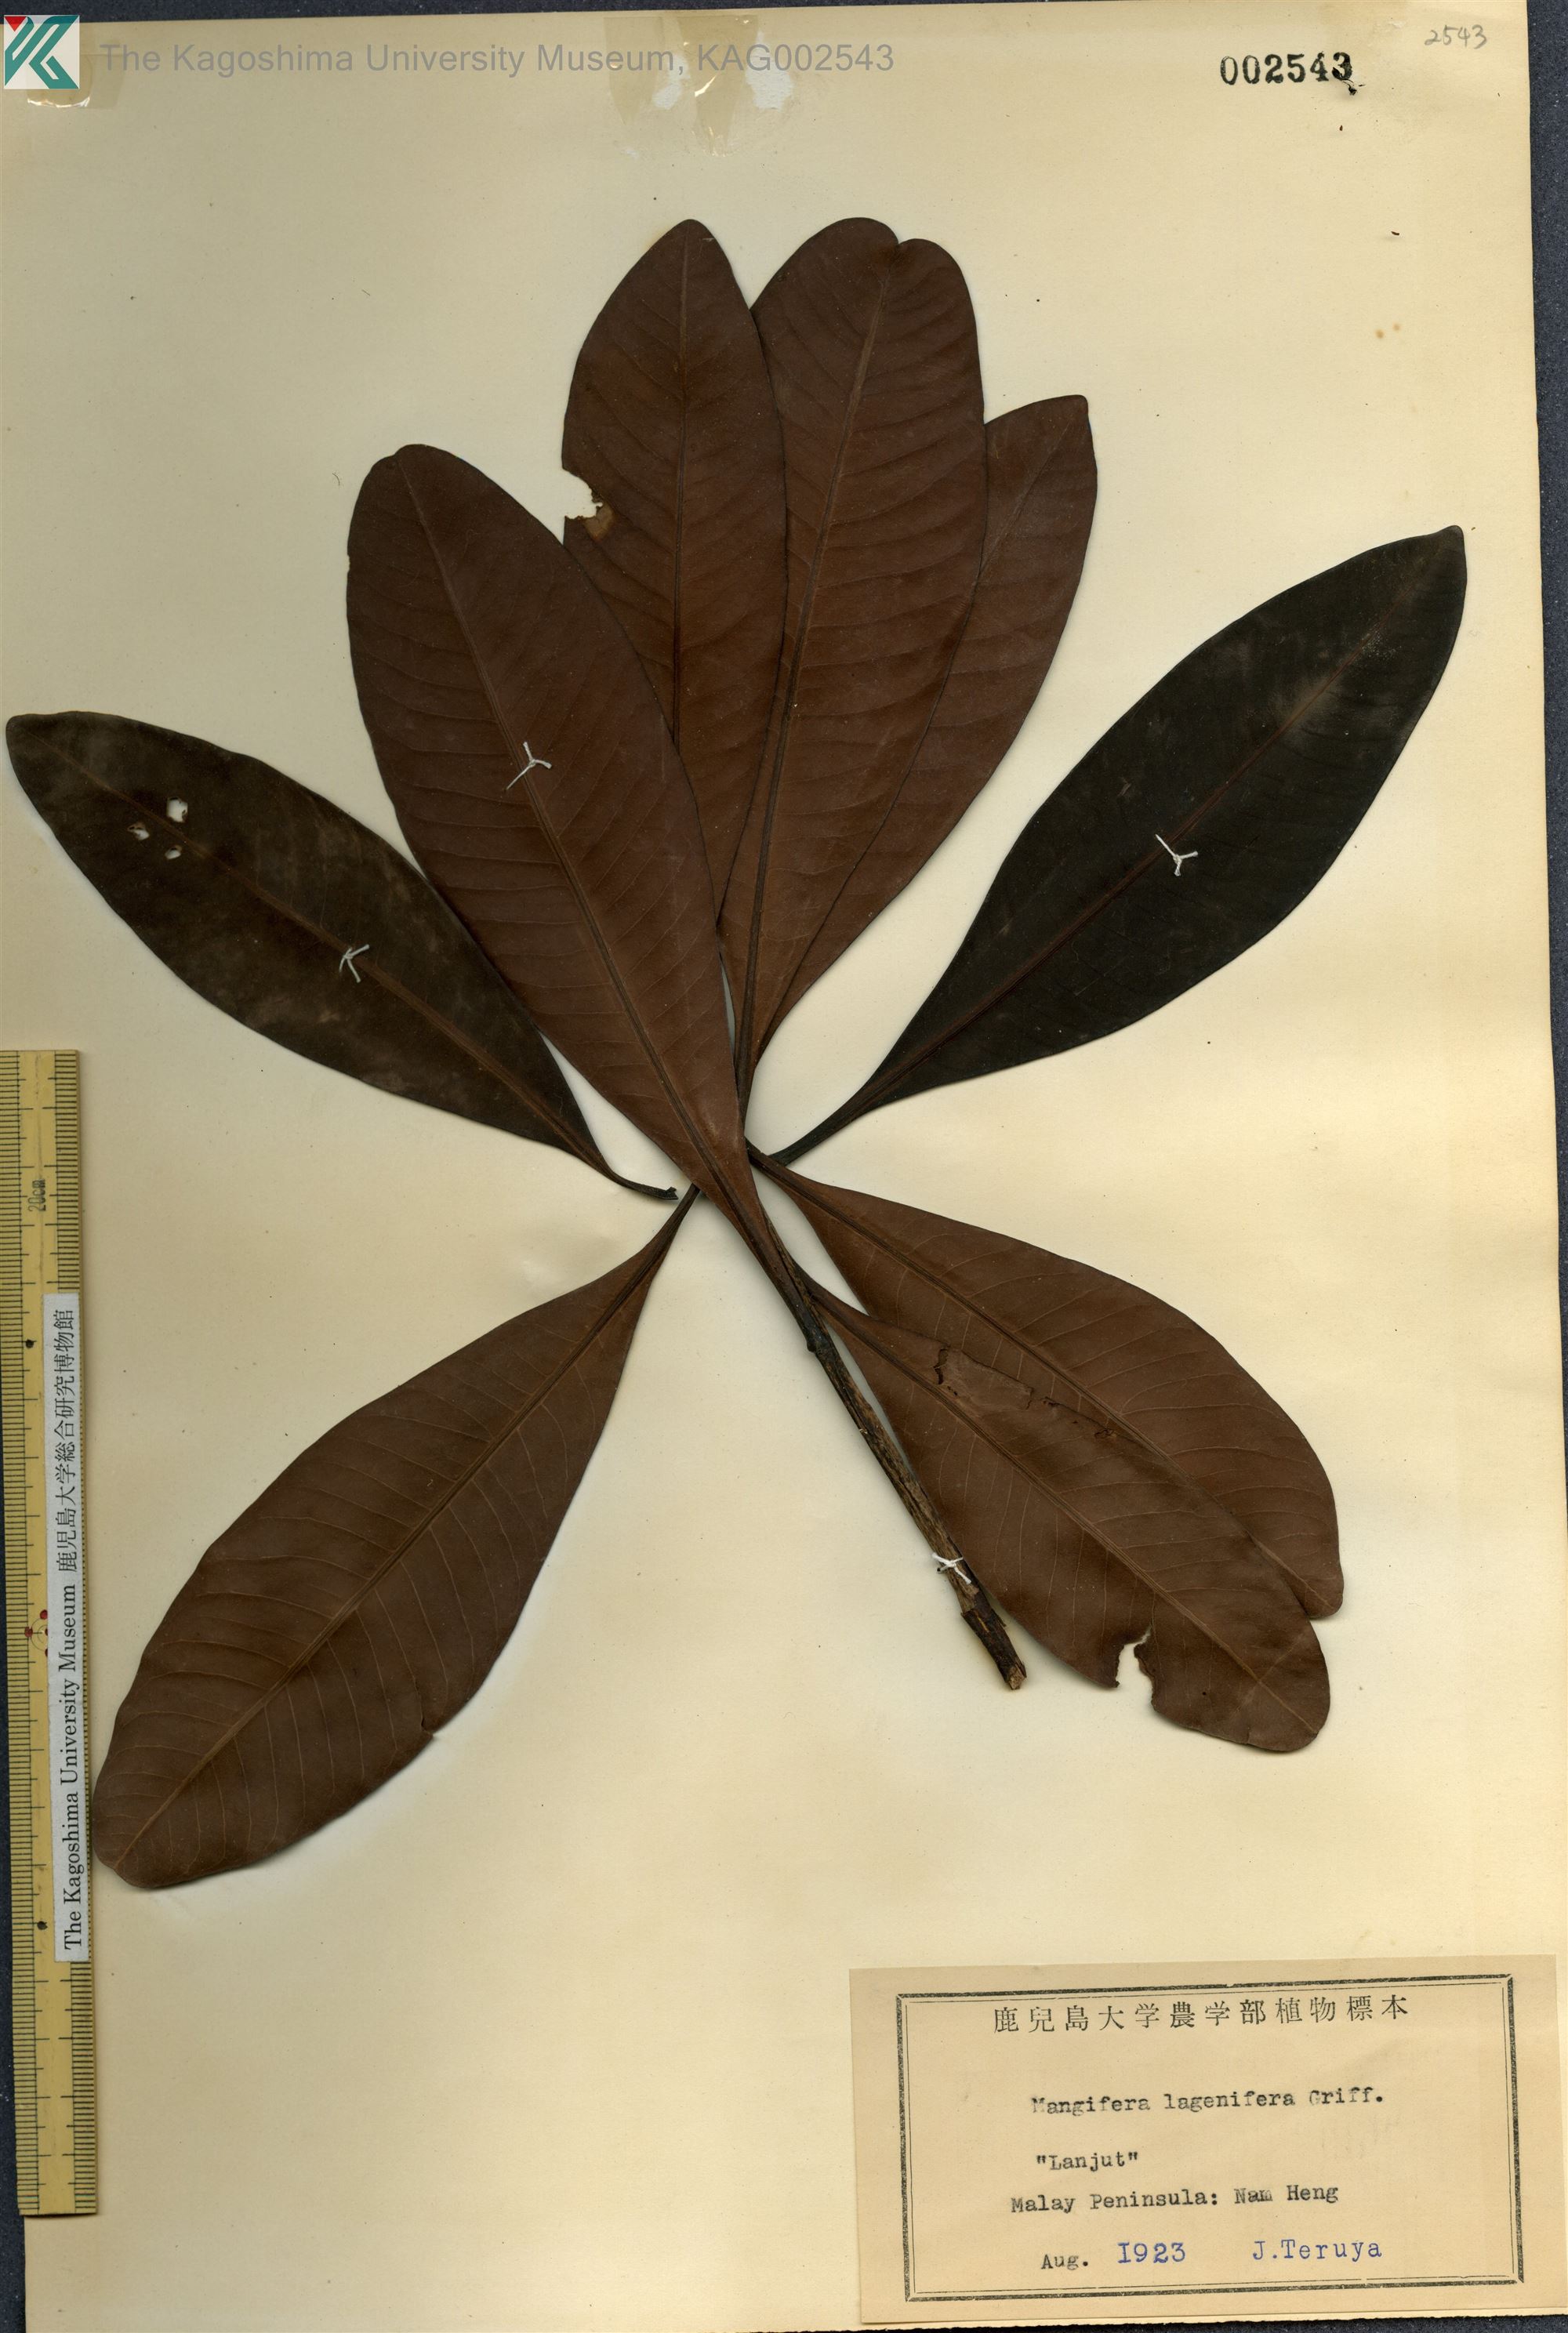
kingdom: Plantae
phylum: Tracheophyta
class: Magnoliopsida
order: Sapindales
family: Anacardiaceae
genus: Mangifera
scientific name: Mangifera lagenifera
